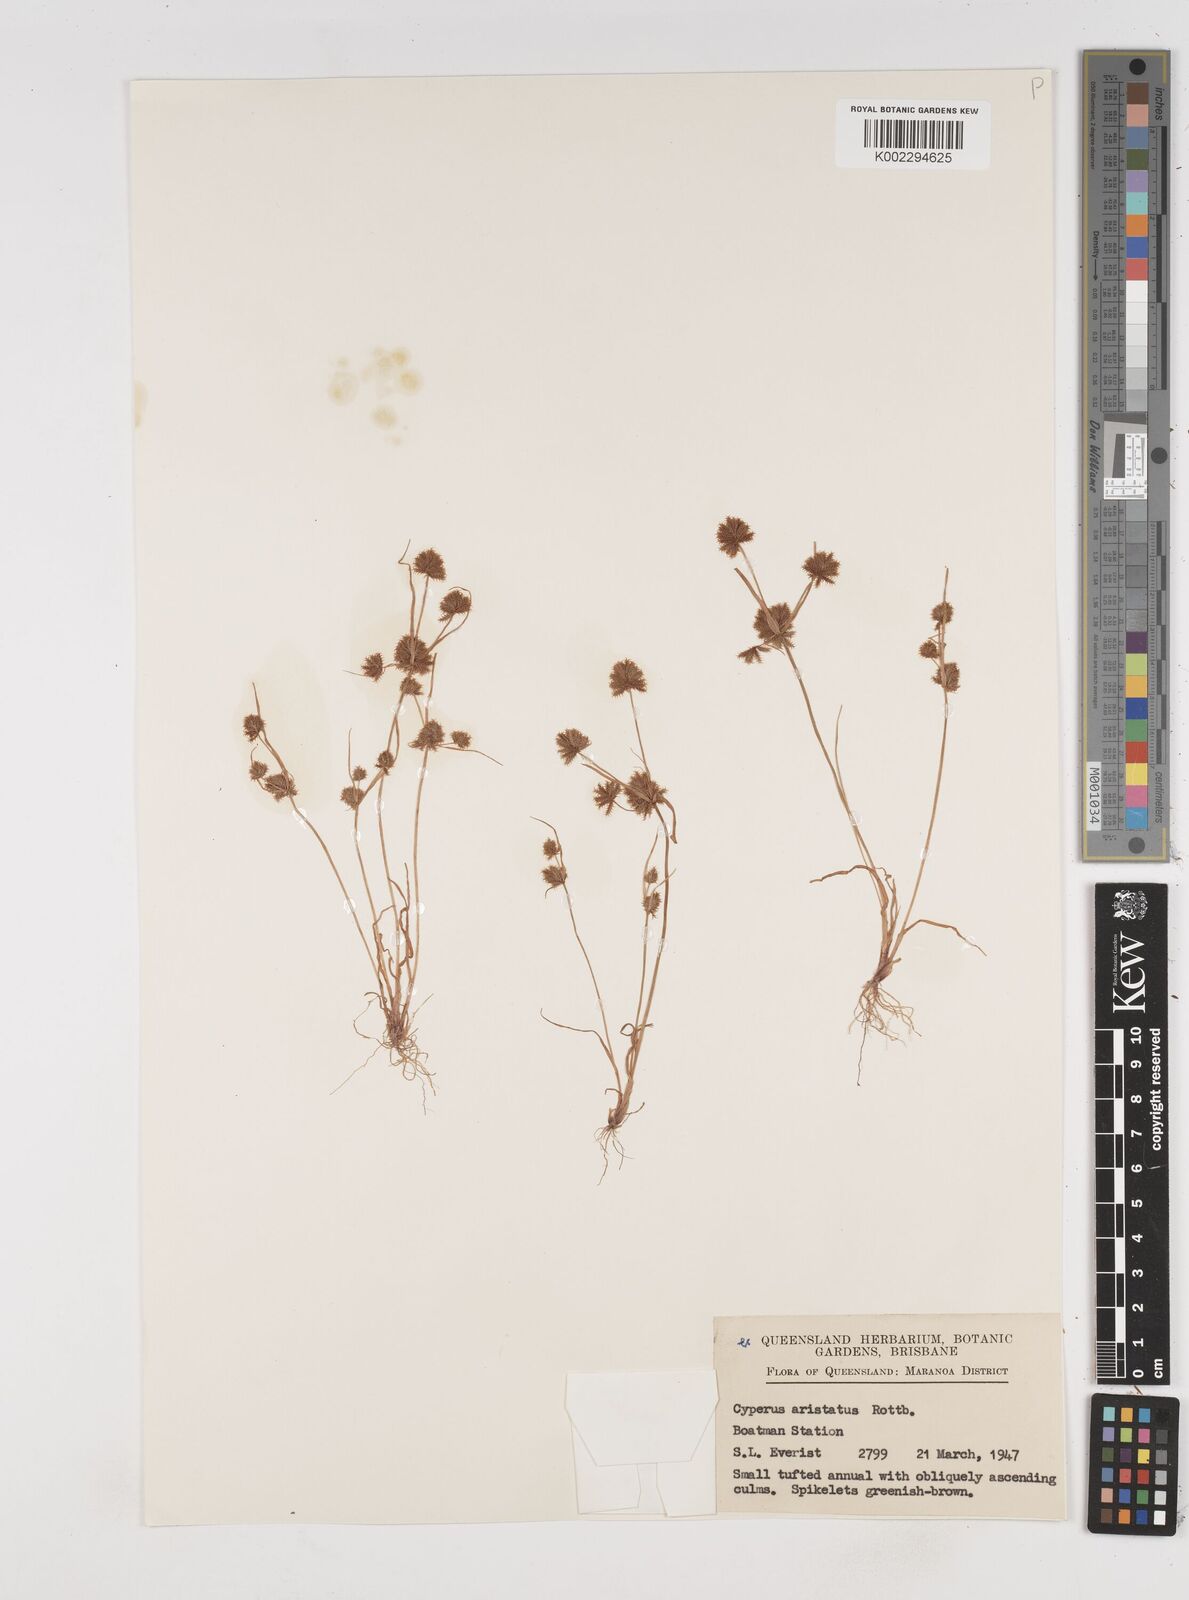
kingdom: Plantae
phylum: Tracheophyta
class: Liliopsida
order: Poales
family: Cyperaceae
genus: Cyperus
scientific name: Cyperus squarrosus
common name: Awned cyperus
